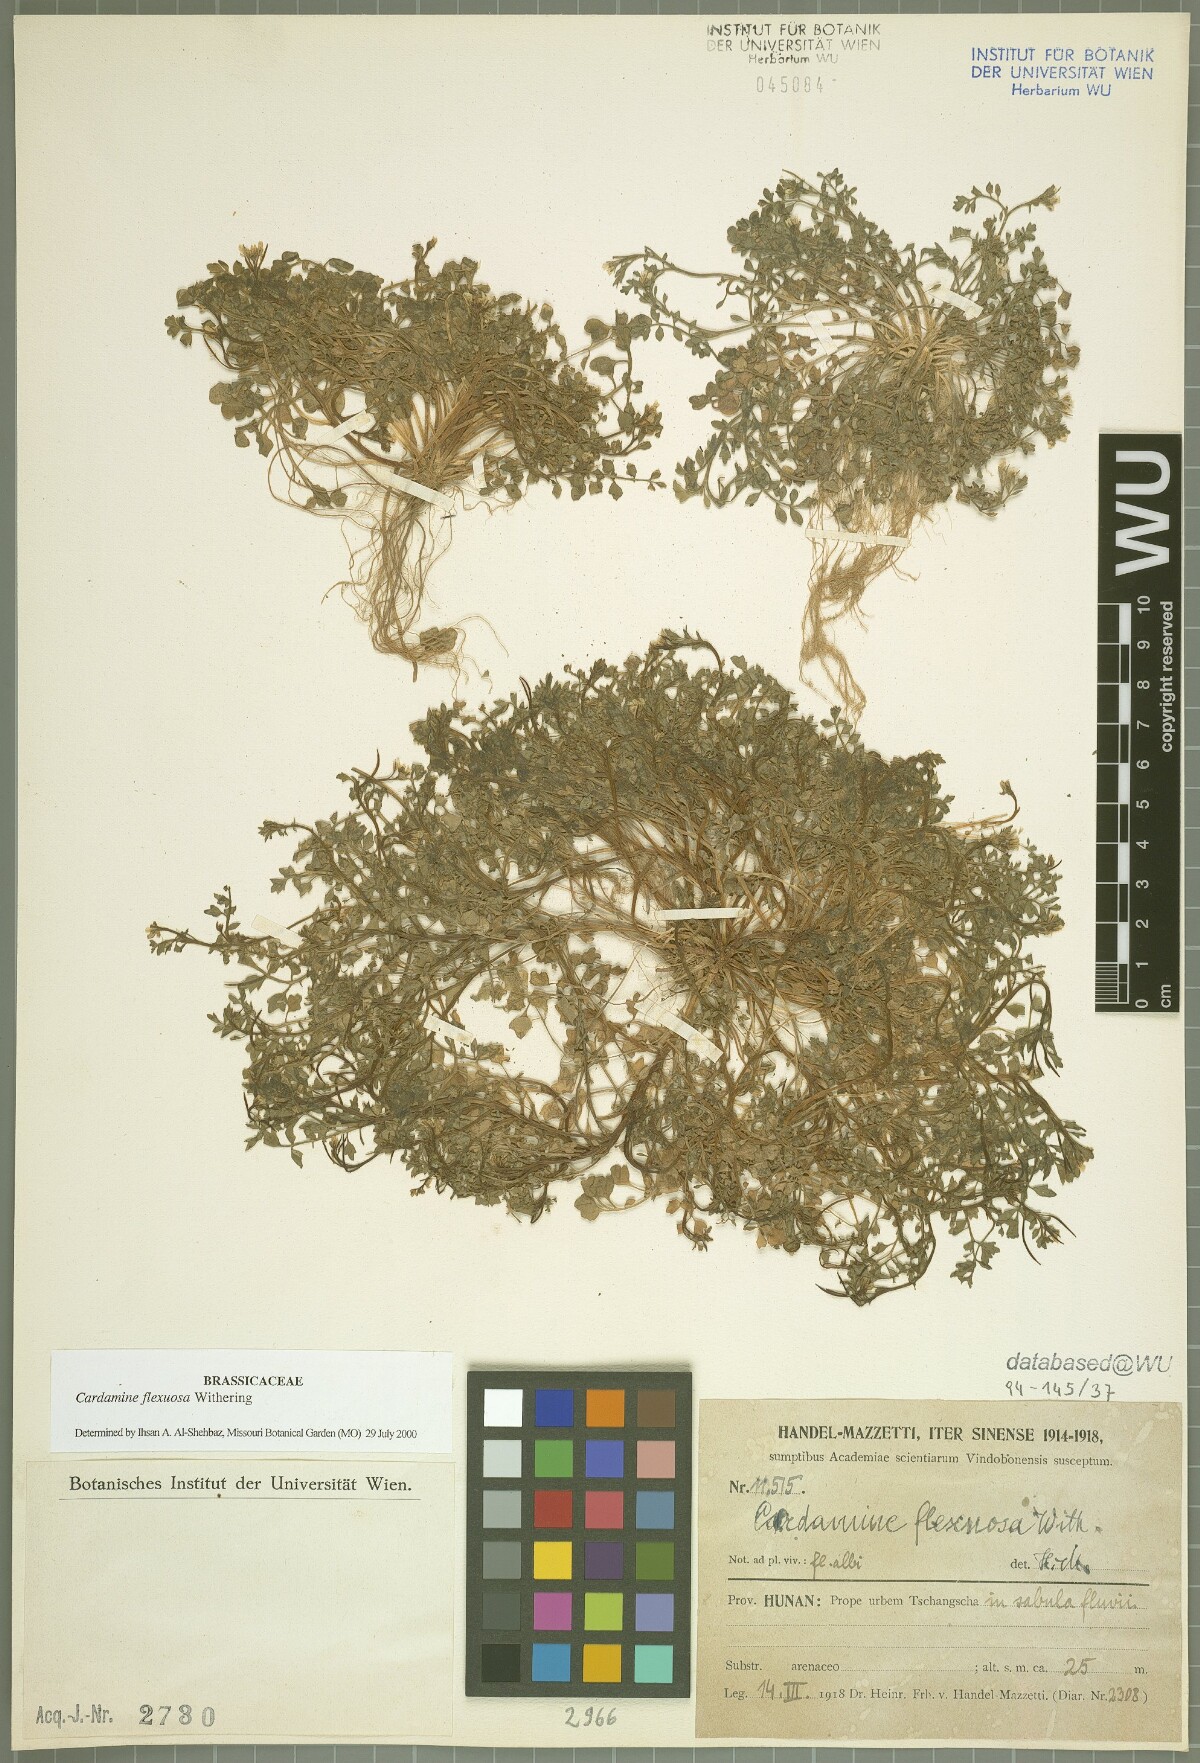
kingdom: Plantae
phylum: Tracheophyta
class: Magnoliopsida
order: Brassicales
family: Brassicaceae
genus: Cardamine
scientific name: Cardamine flexuosa
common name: Woodland bittercress
